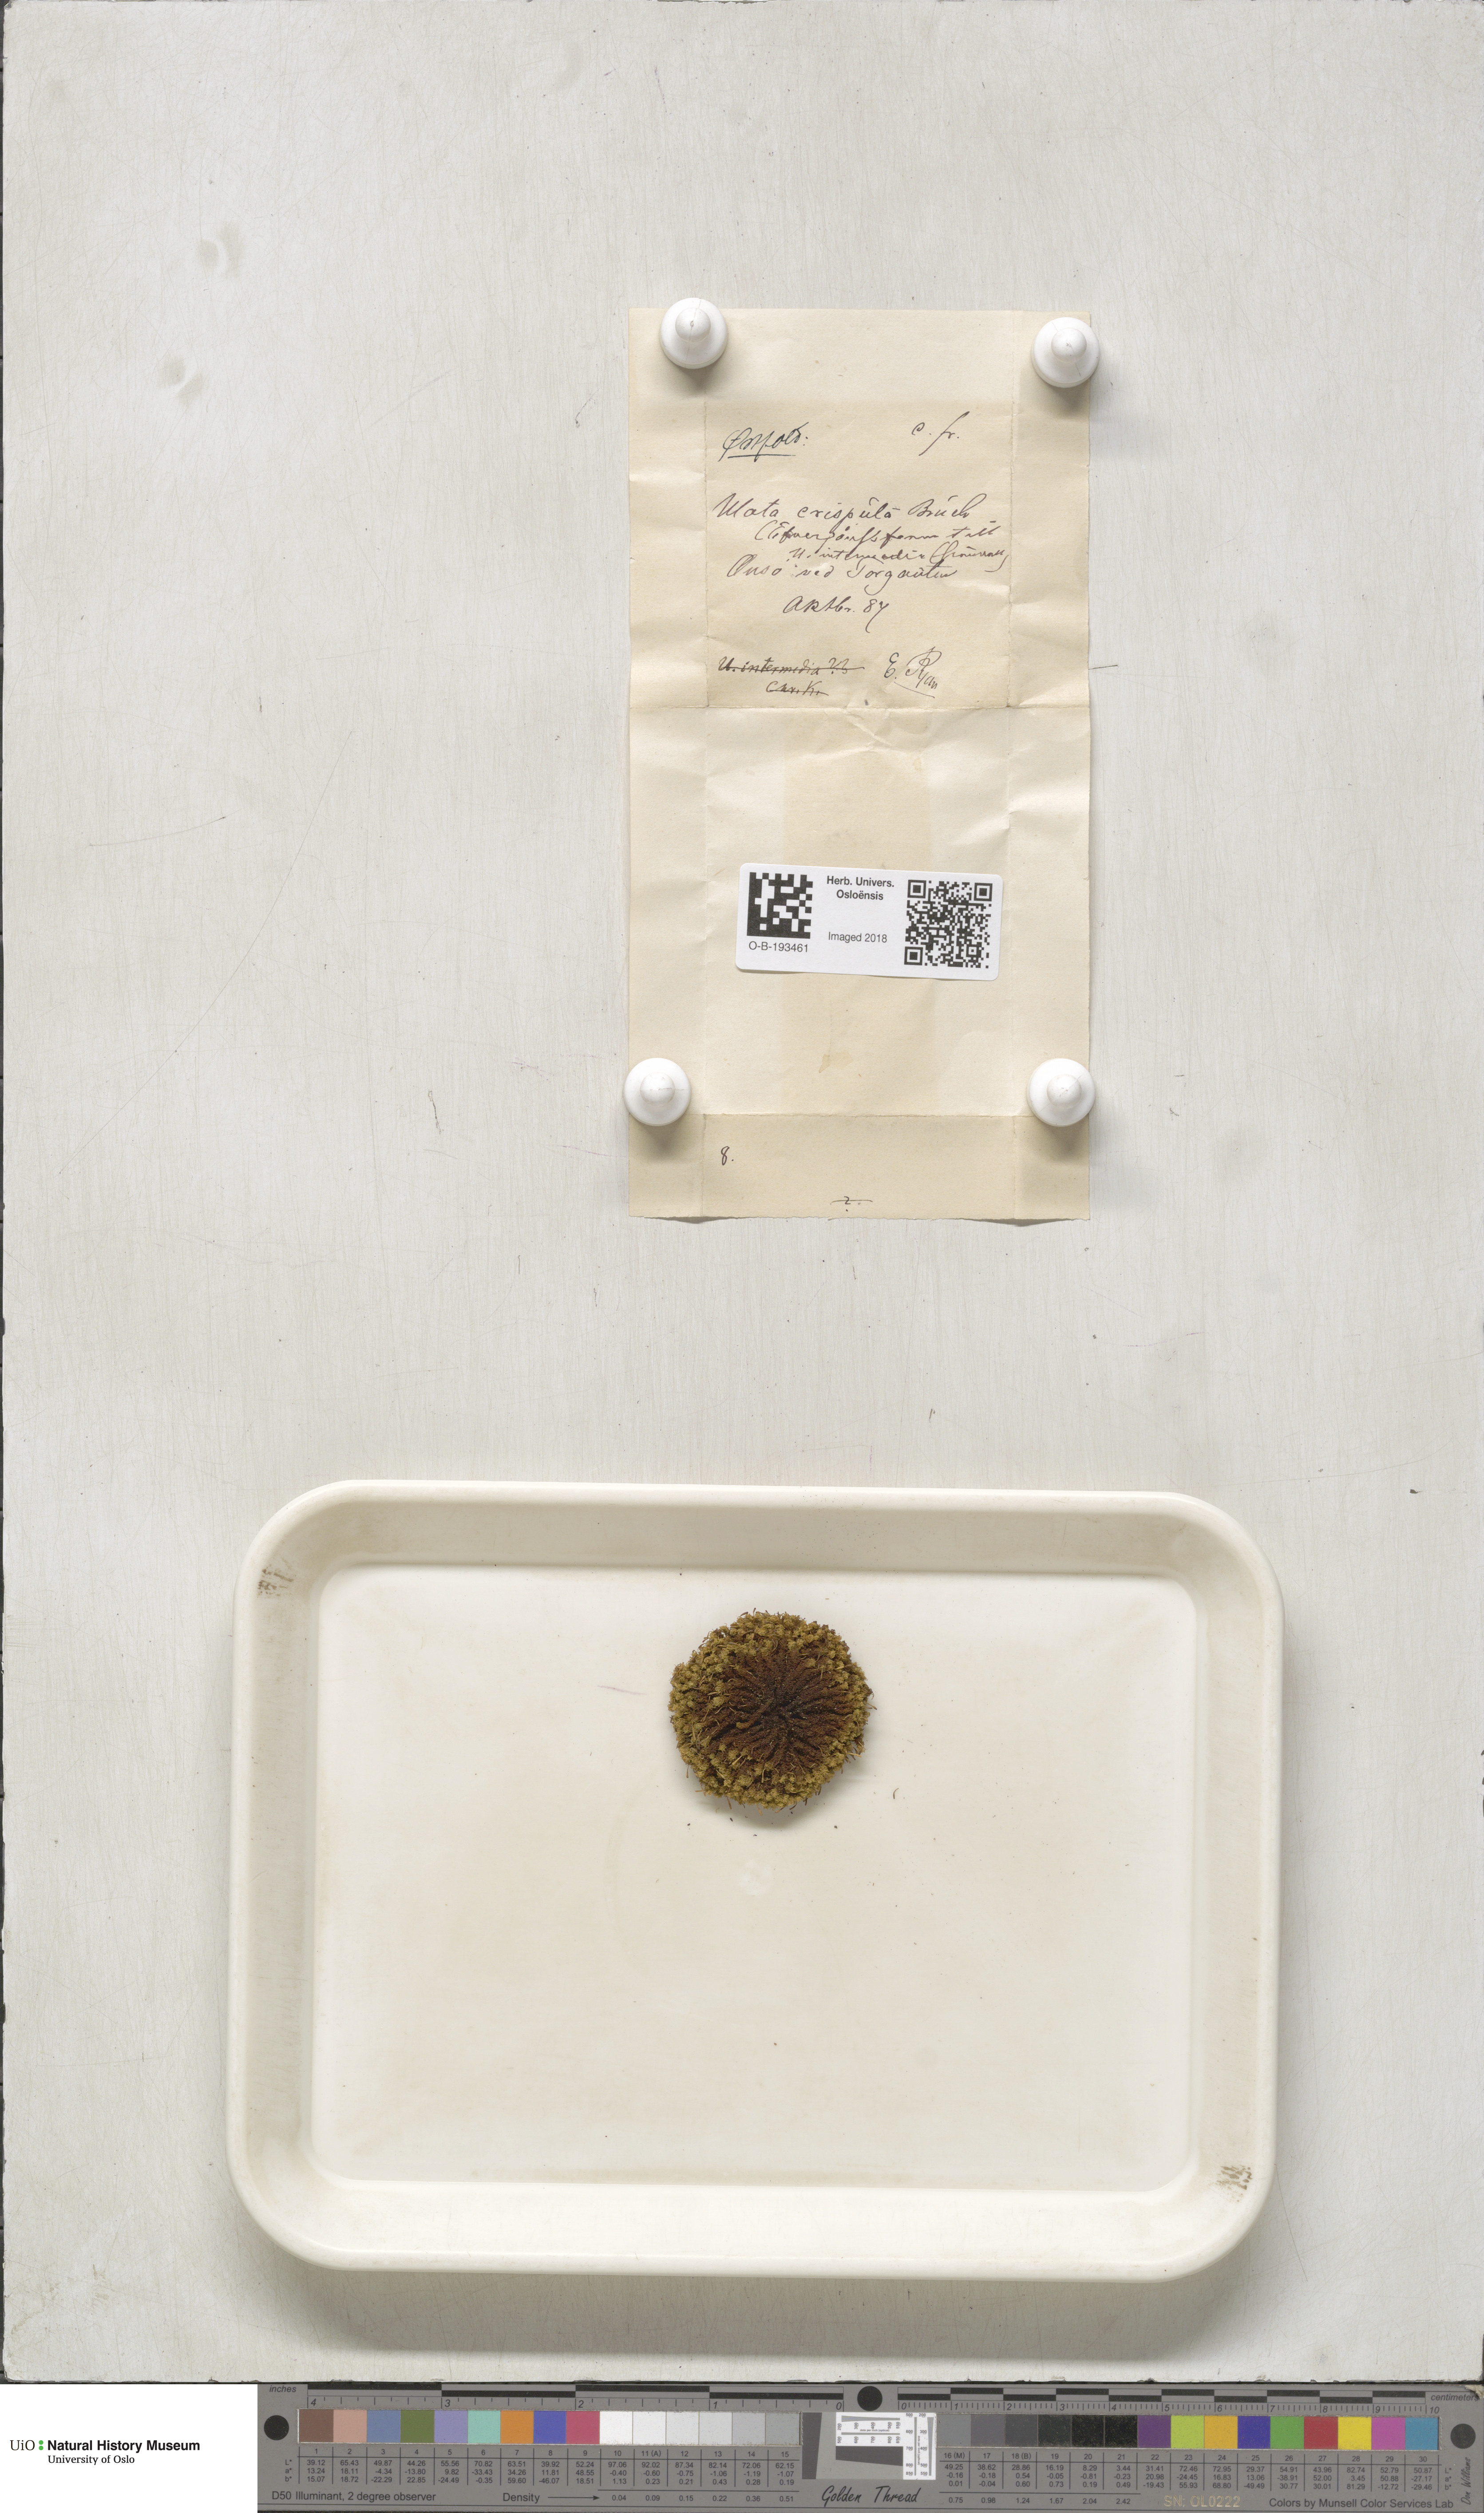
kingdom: Plantae
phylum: Bryophyta
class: Bryopsida
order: Orthotrichales
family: Orthotrichaceae
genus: Ulota
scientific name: Ulota crispa
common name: Crisped pincushion moss
